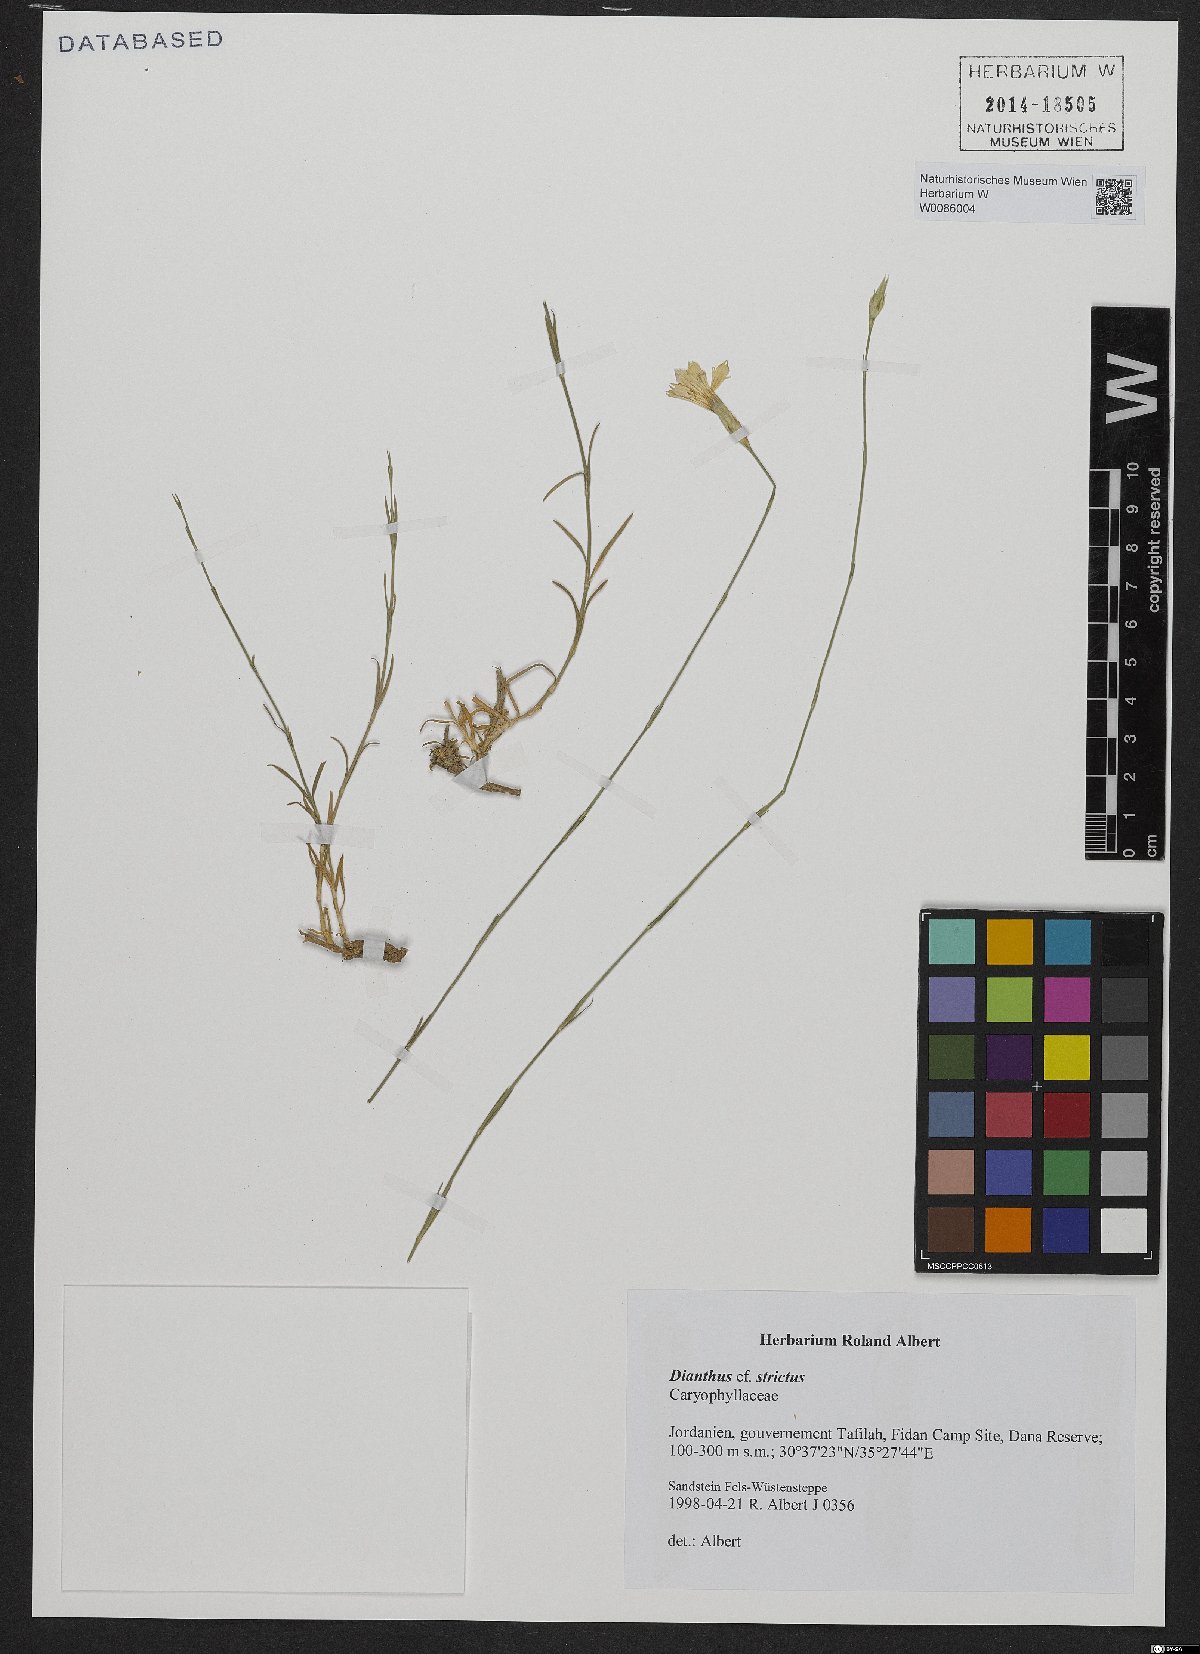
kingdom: Plantae
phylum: Tracheophyta
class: Magnoliopsida
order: Caryophyllales
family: Caryophyllaceae
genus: Dianthus
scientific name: Dianthus strictus
